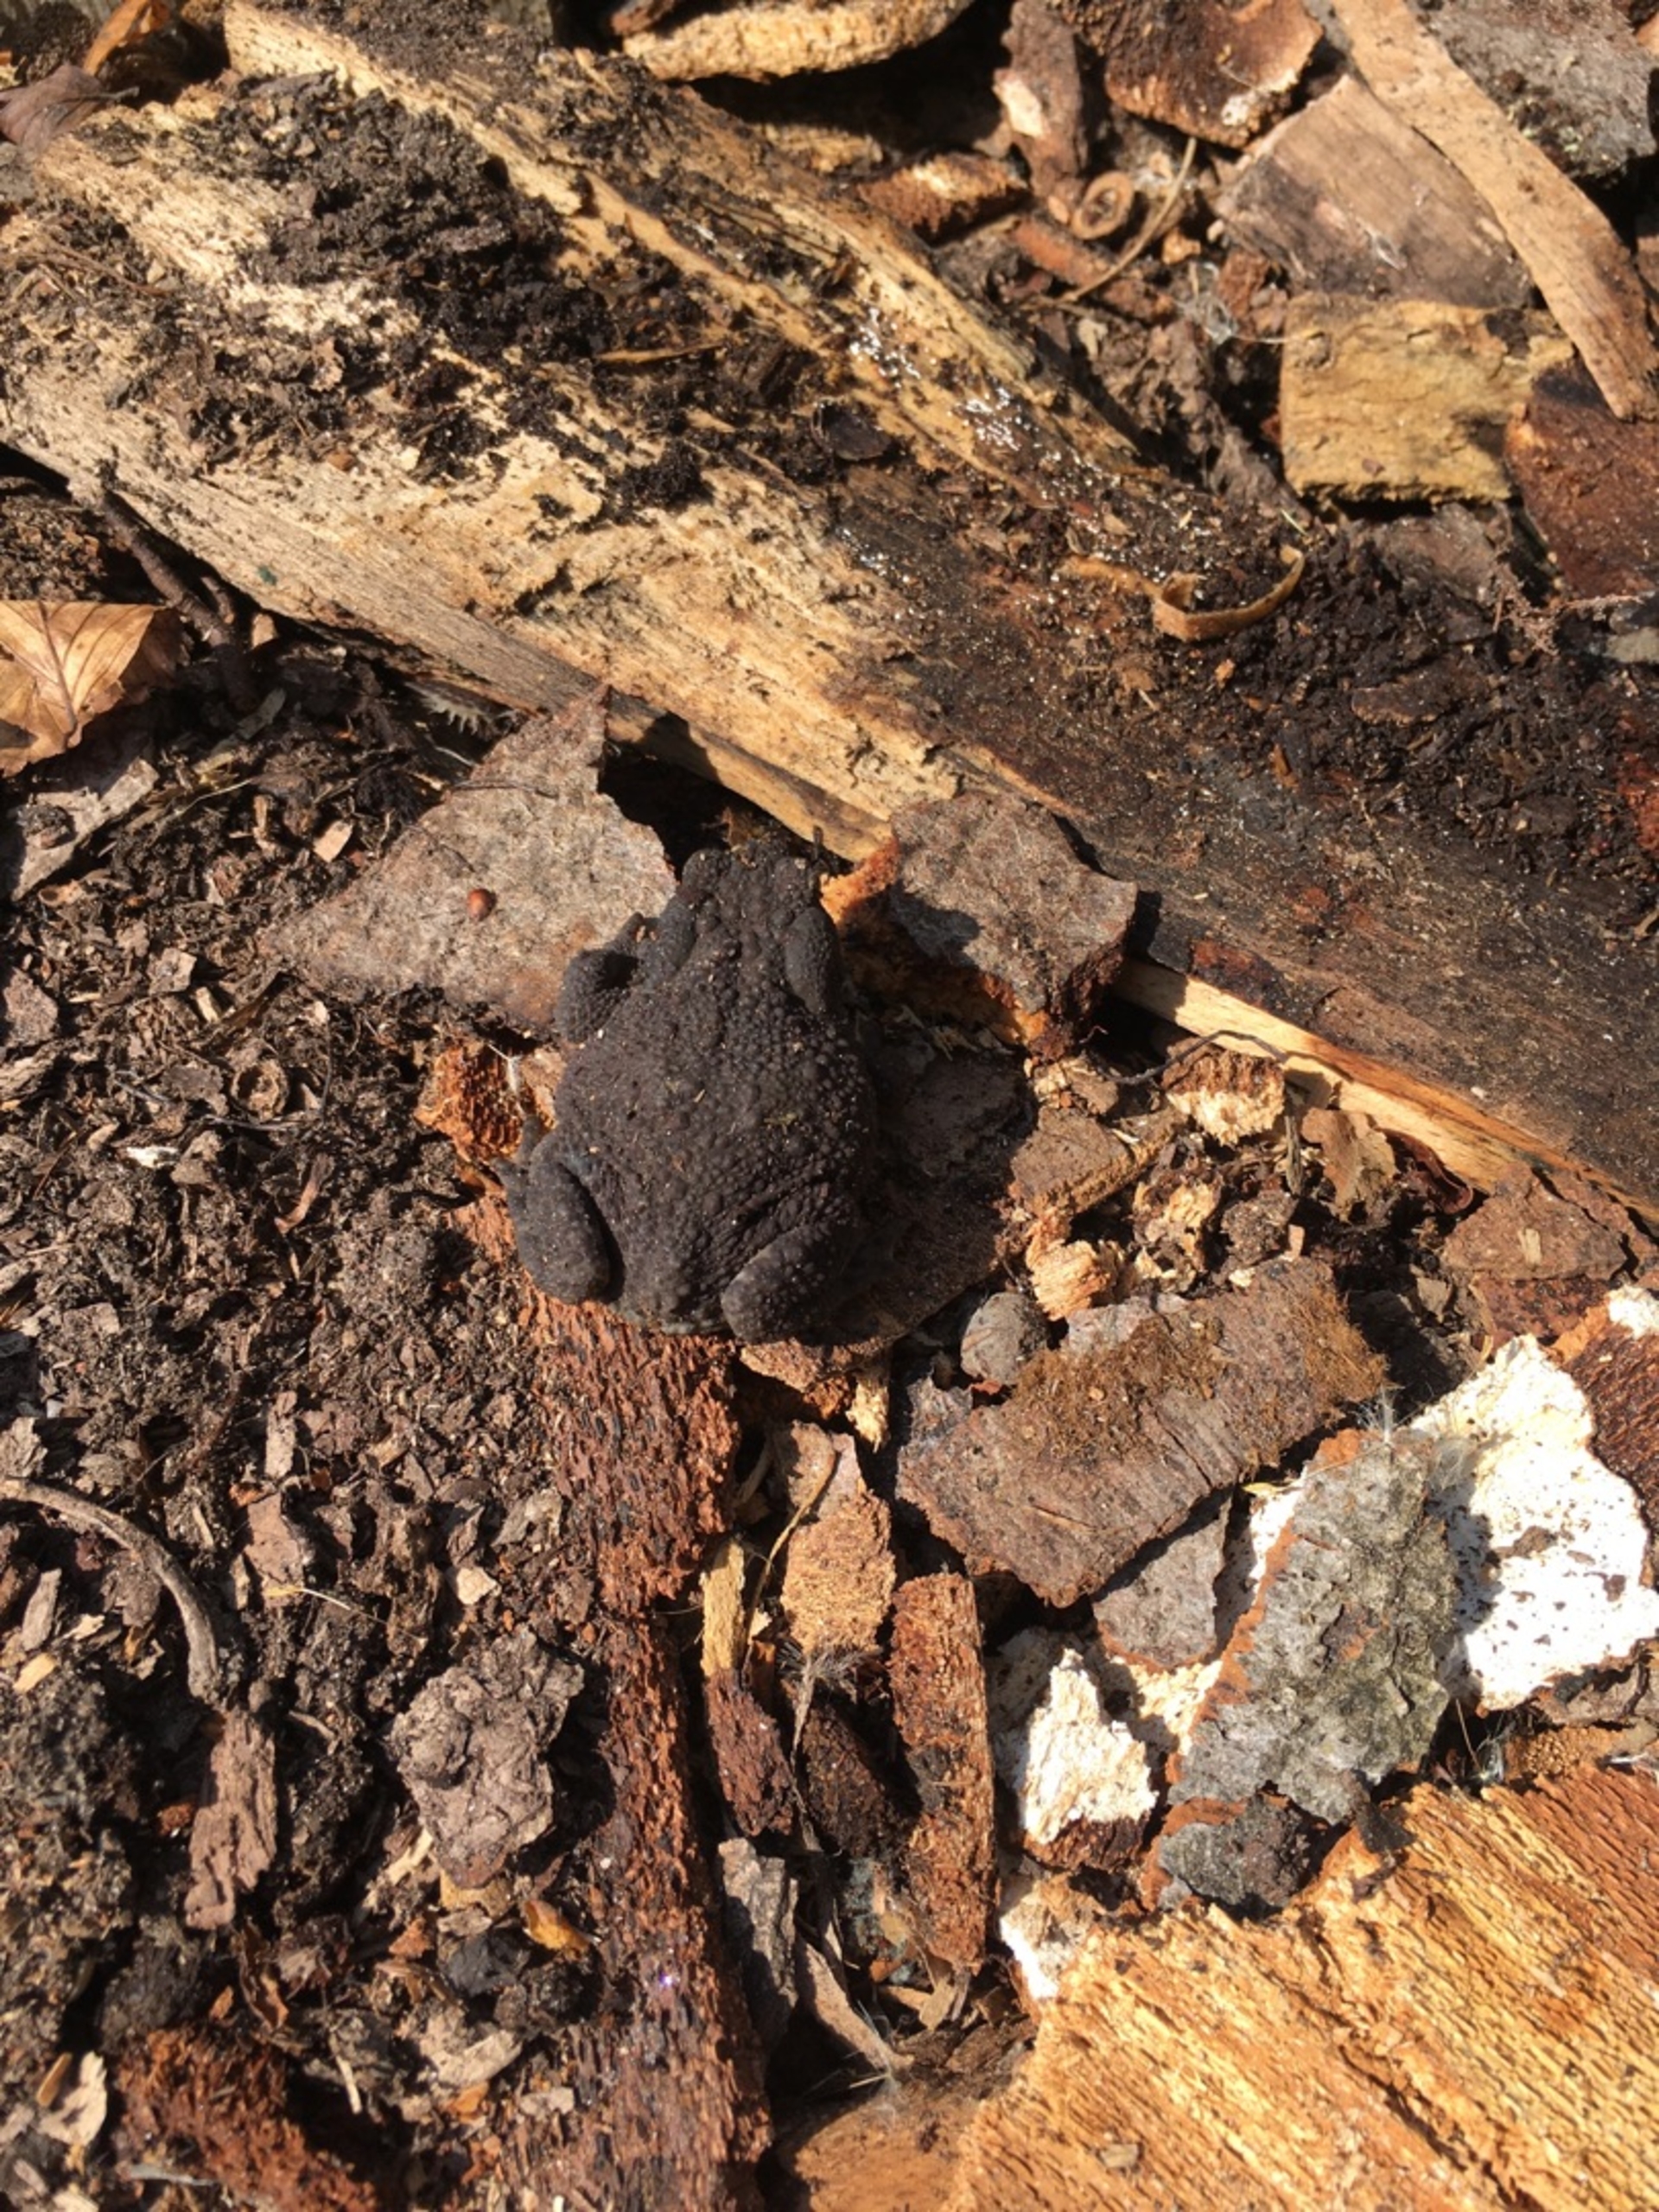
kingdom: Animalia
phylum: Chordata
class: Amphibia
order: Anura
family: Bufonidae
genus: Bufo
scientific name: Bufo bufo
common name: Skrubtudse
